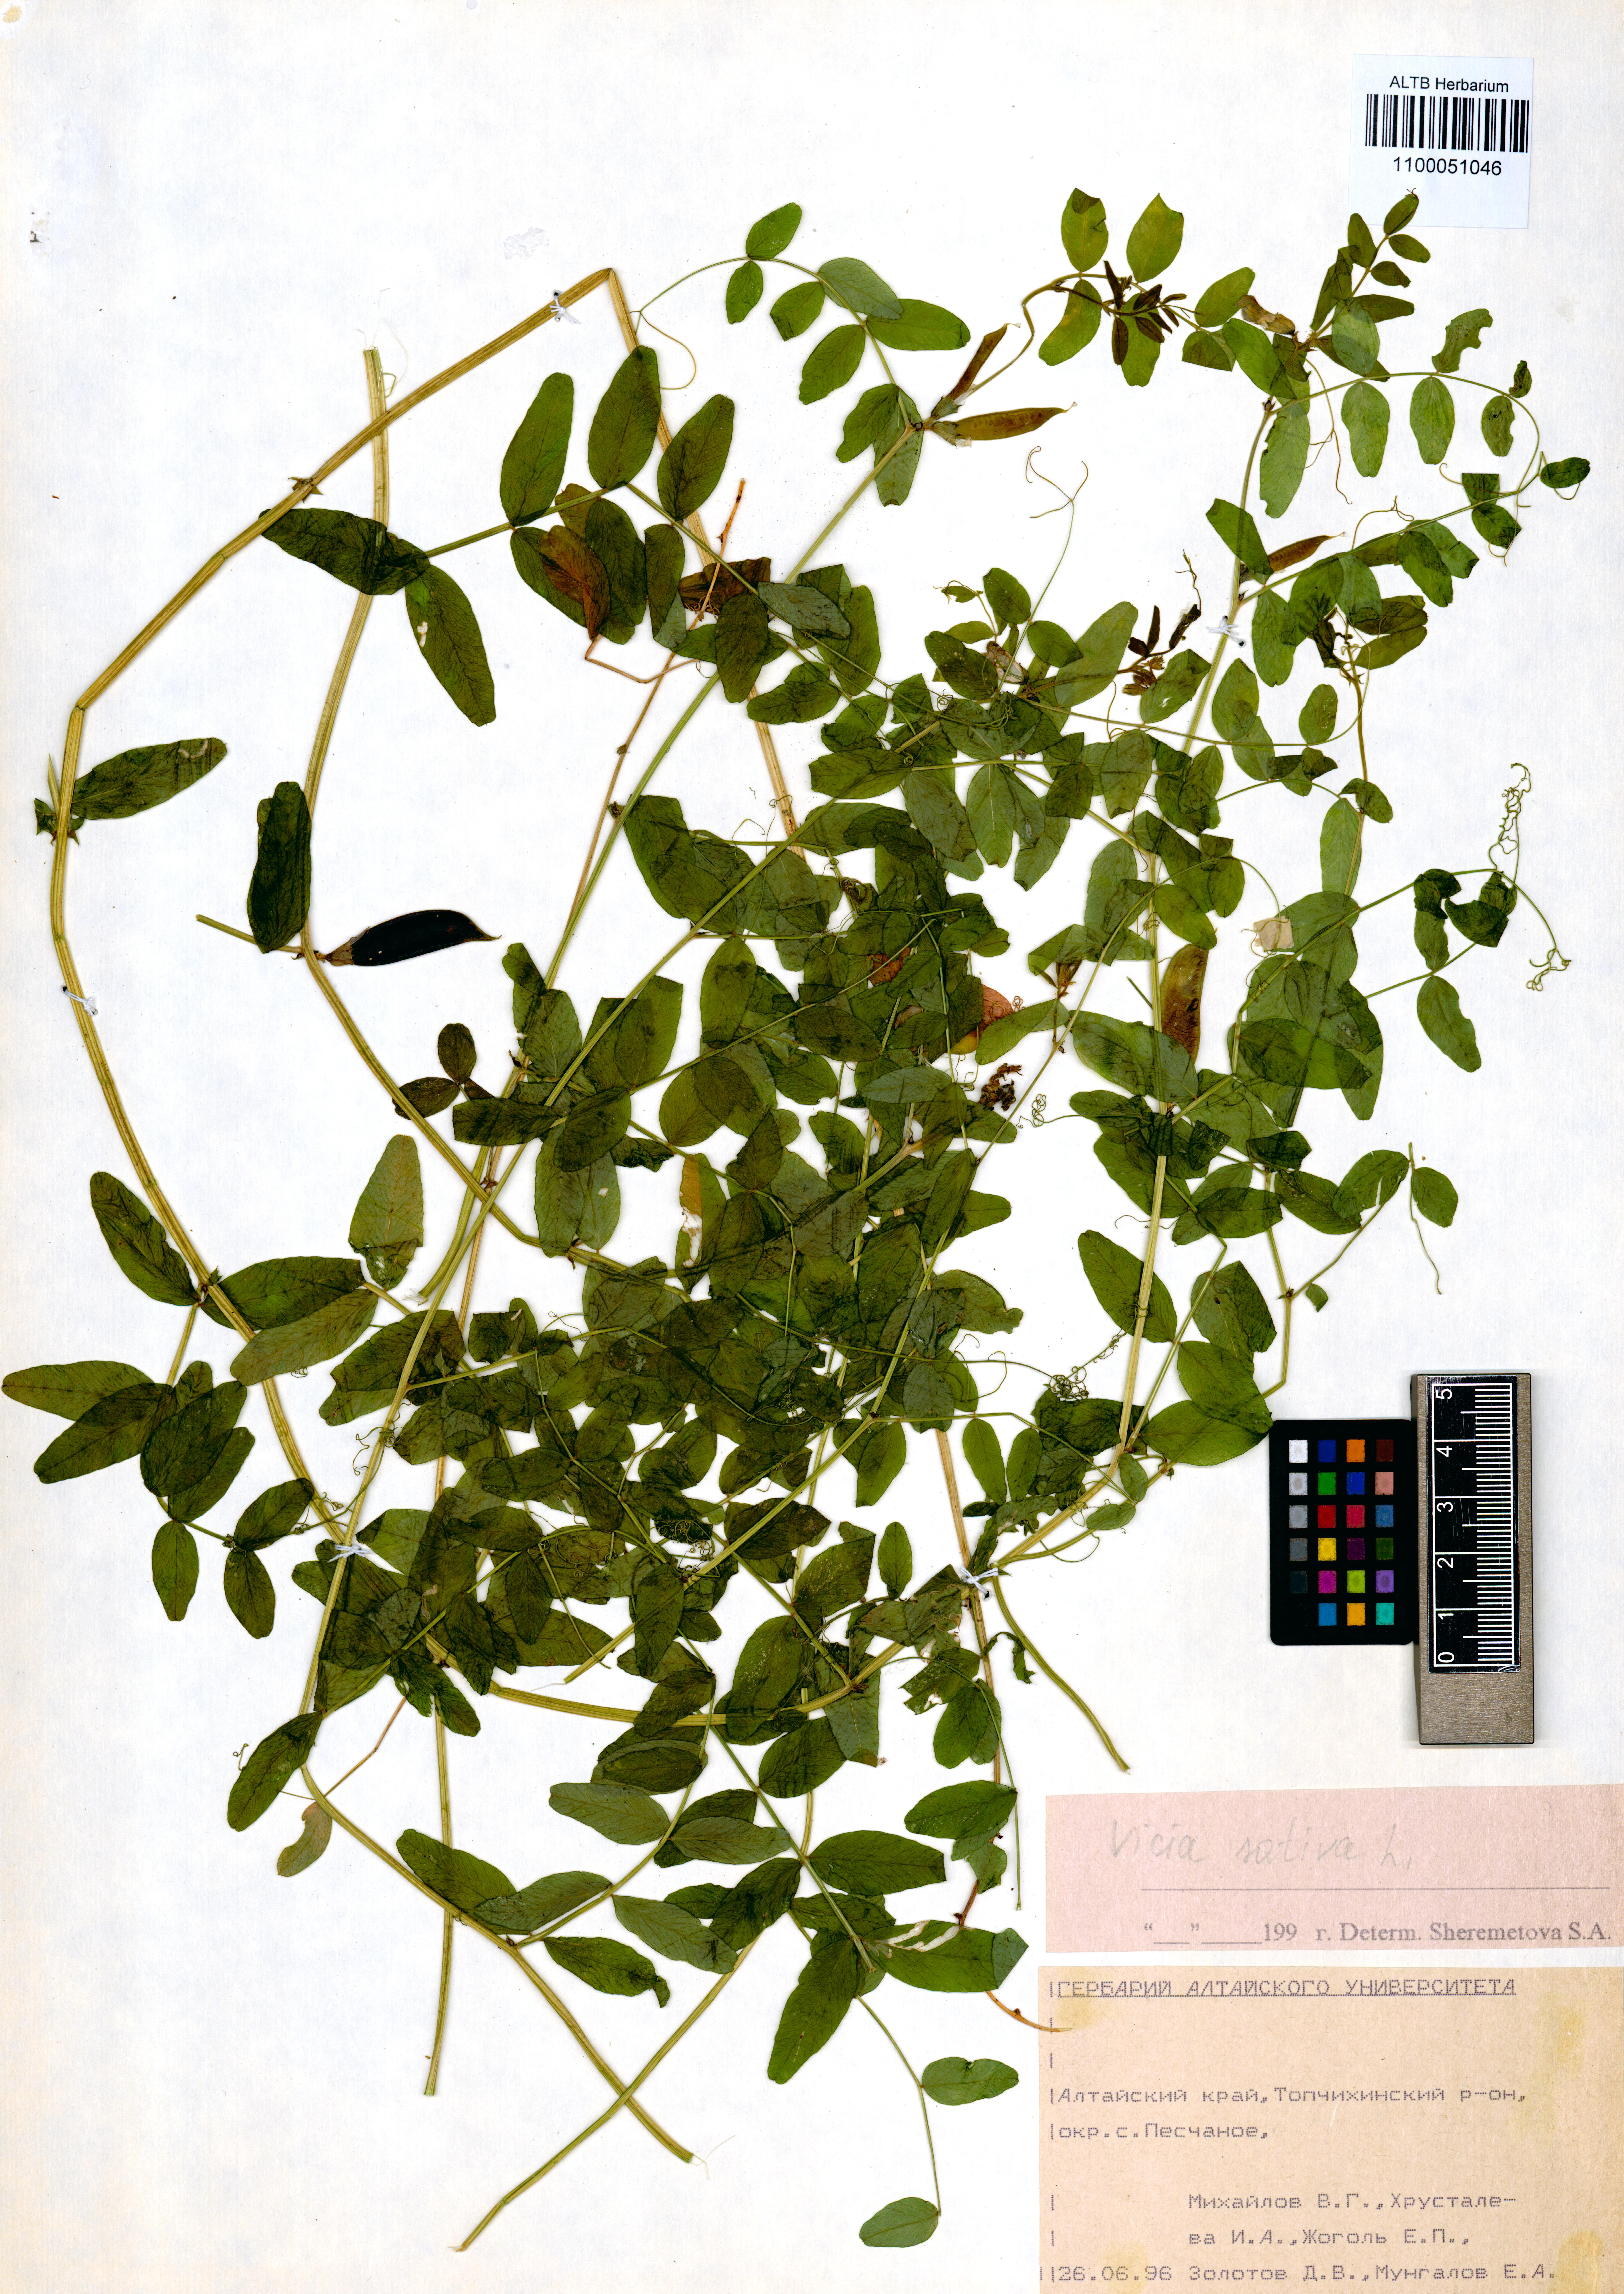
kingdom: Plantae
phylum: Tracheophyta
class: Magnoliopsida
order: Fabales
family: Fabaceae
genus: Vicia
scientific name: Vicia sepium
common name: Bush vetch
